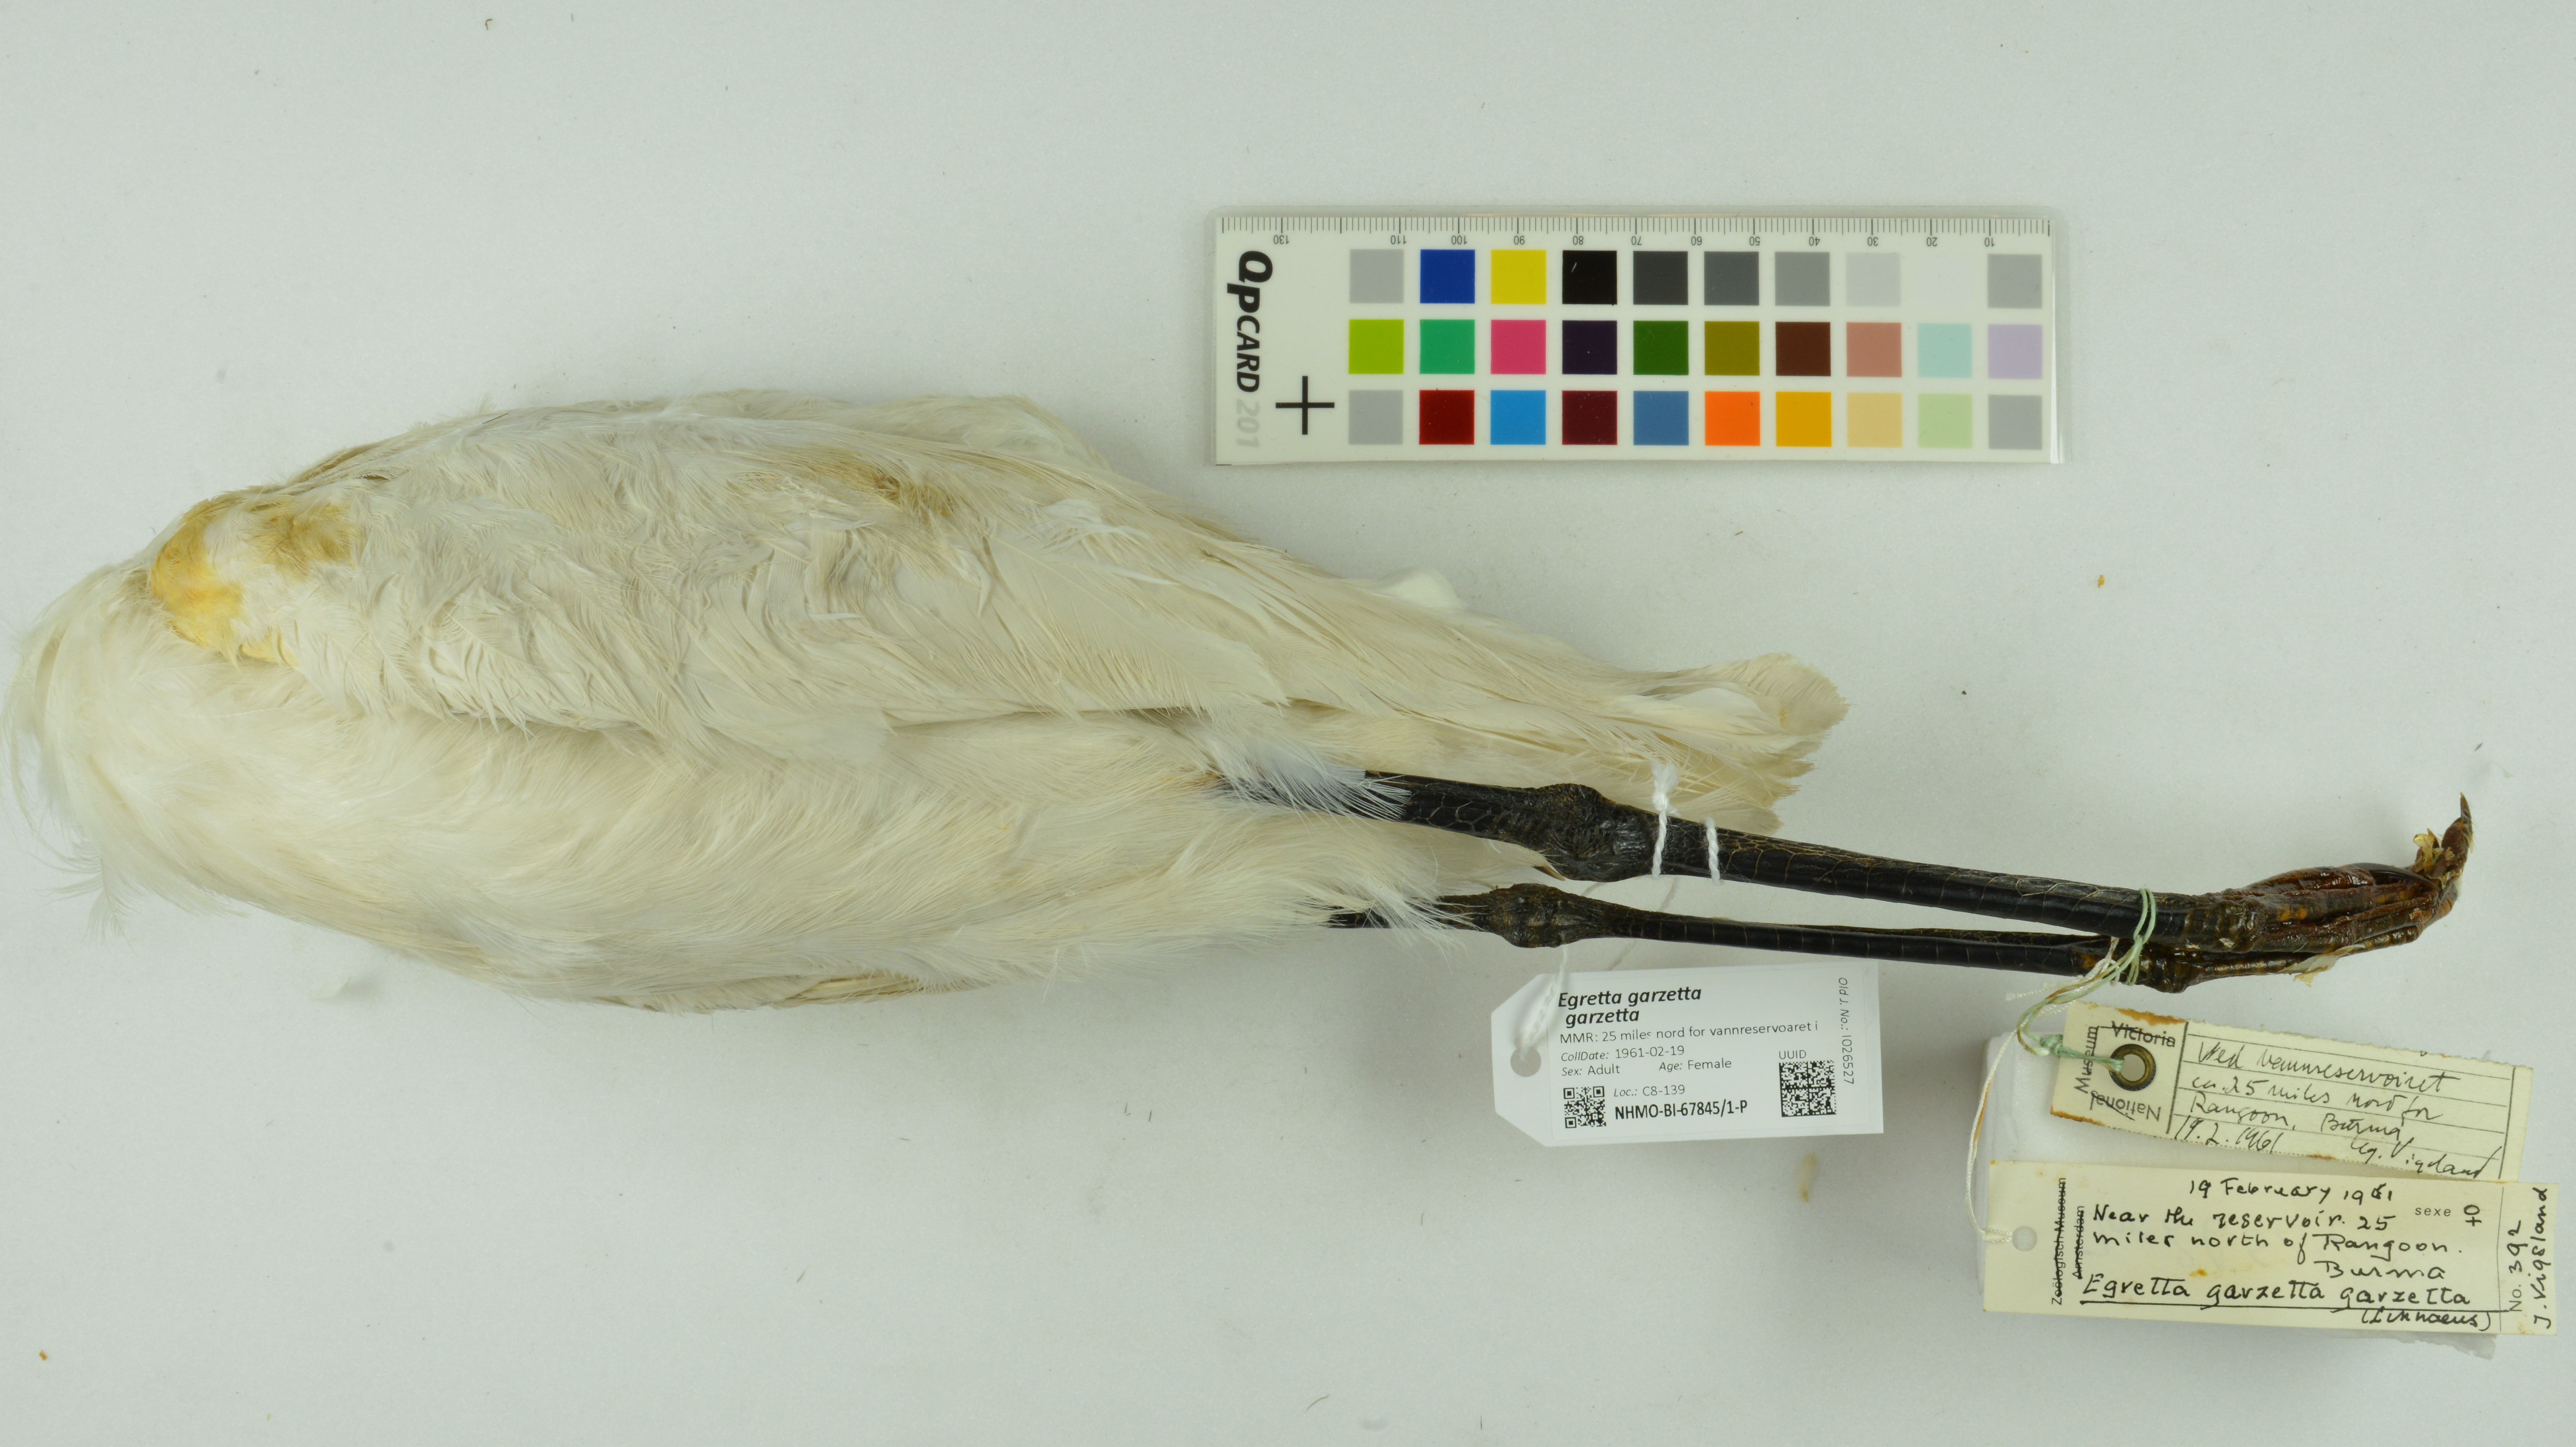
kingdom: Animalia
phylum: Chordata
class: Aves
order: Pelecaniformes
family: Ardeidae
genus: Egretta
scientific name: Egretta garzetta
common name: Little egret
